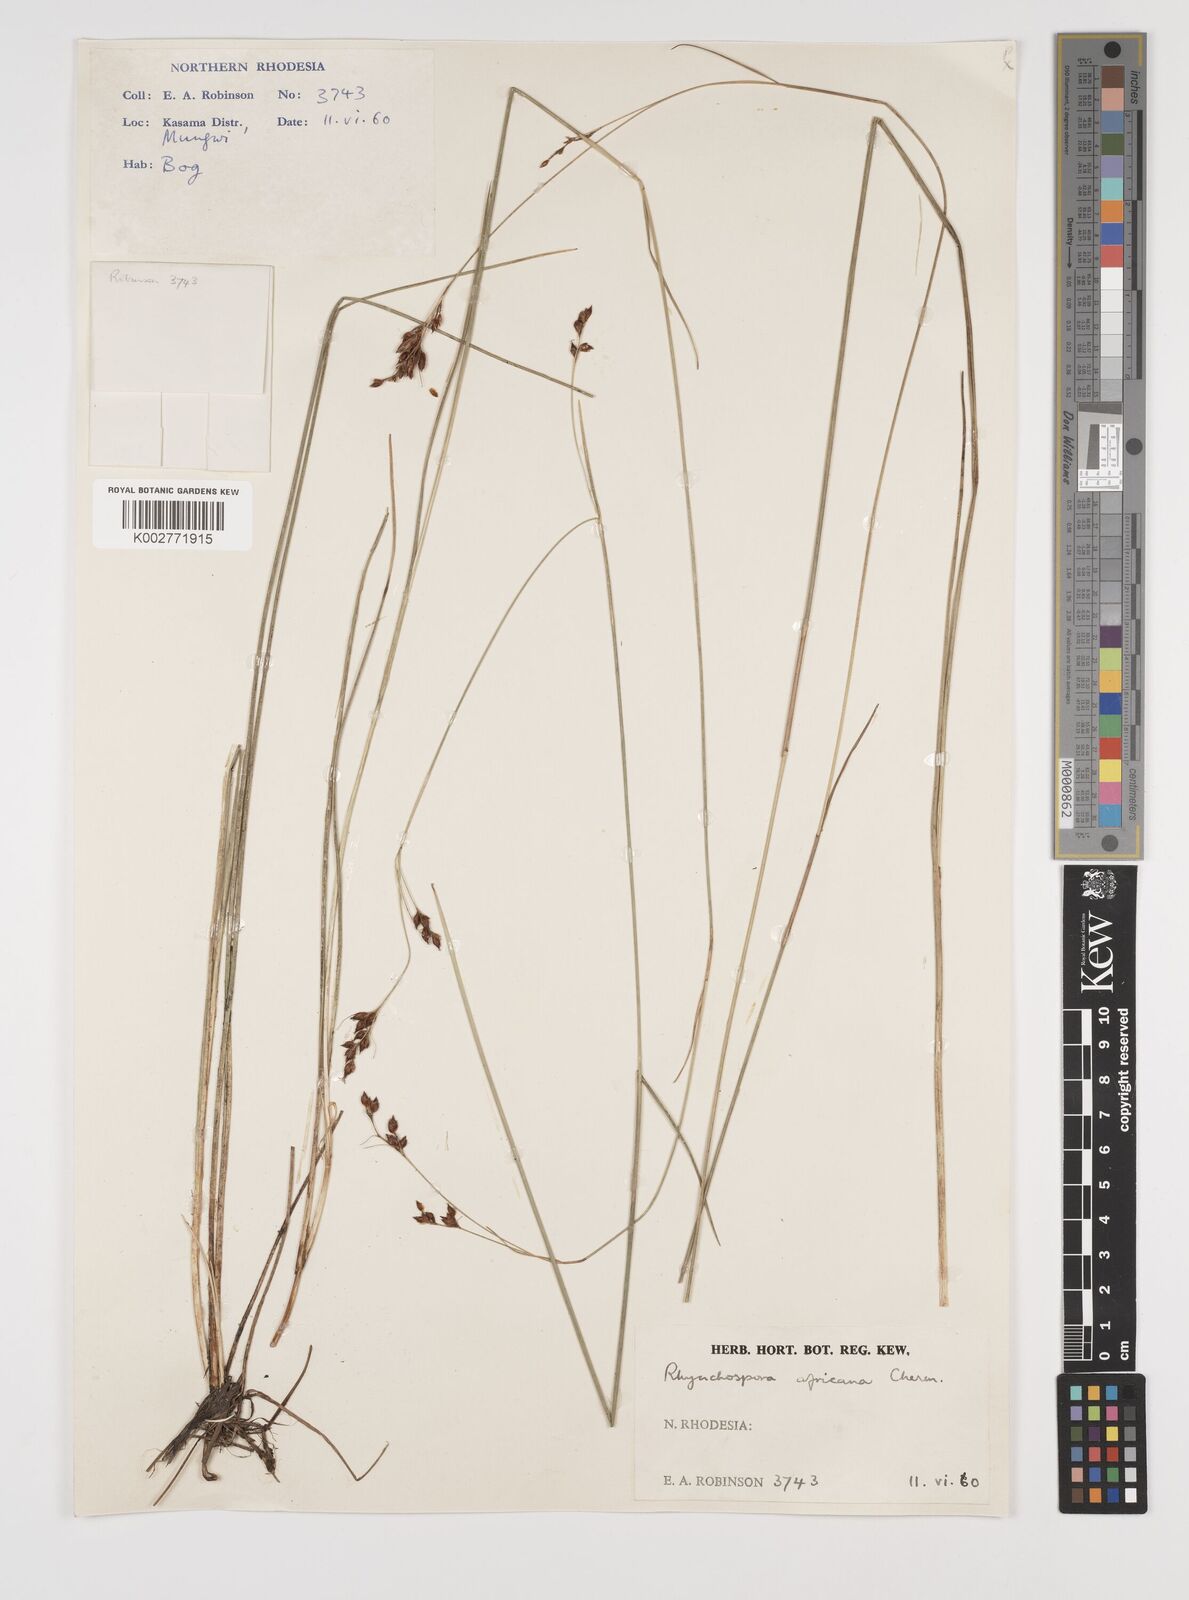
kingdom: Plantae
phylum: Tracheophyta
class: Liliopsida
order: Poales
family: Cyperaceae
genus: Rhynchospora
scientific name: Rhynchospora angolensis
